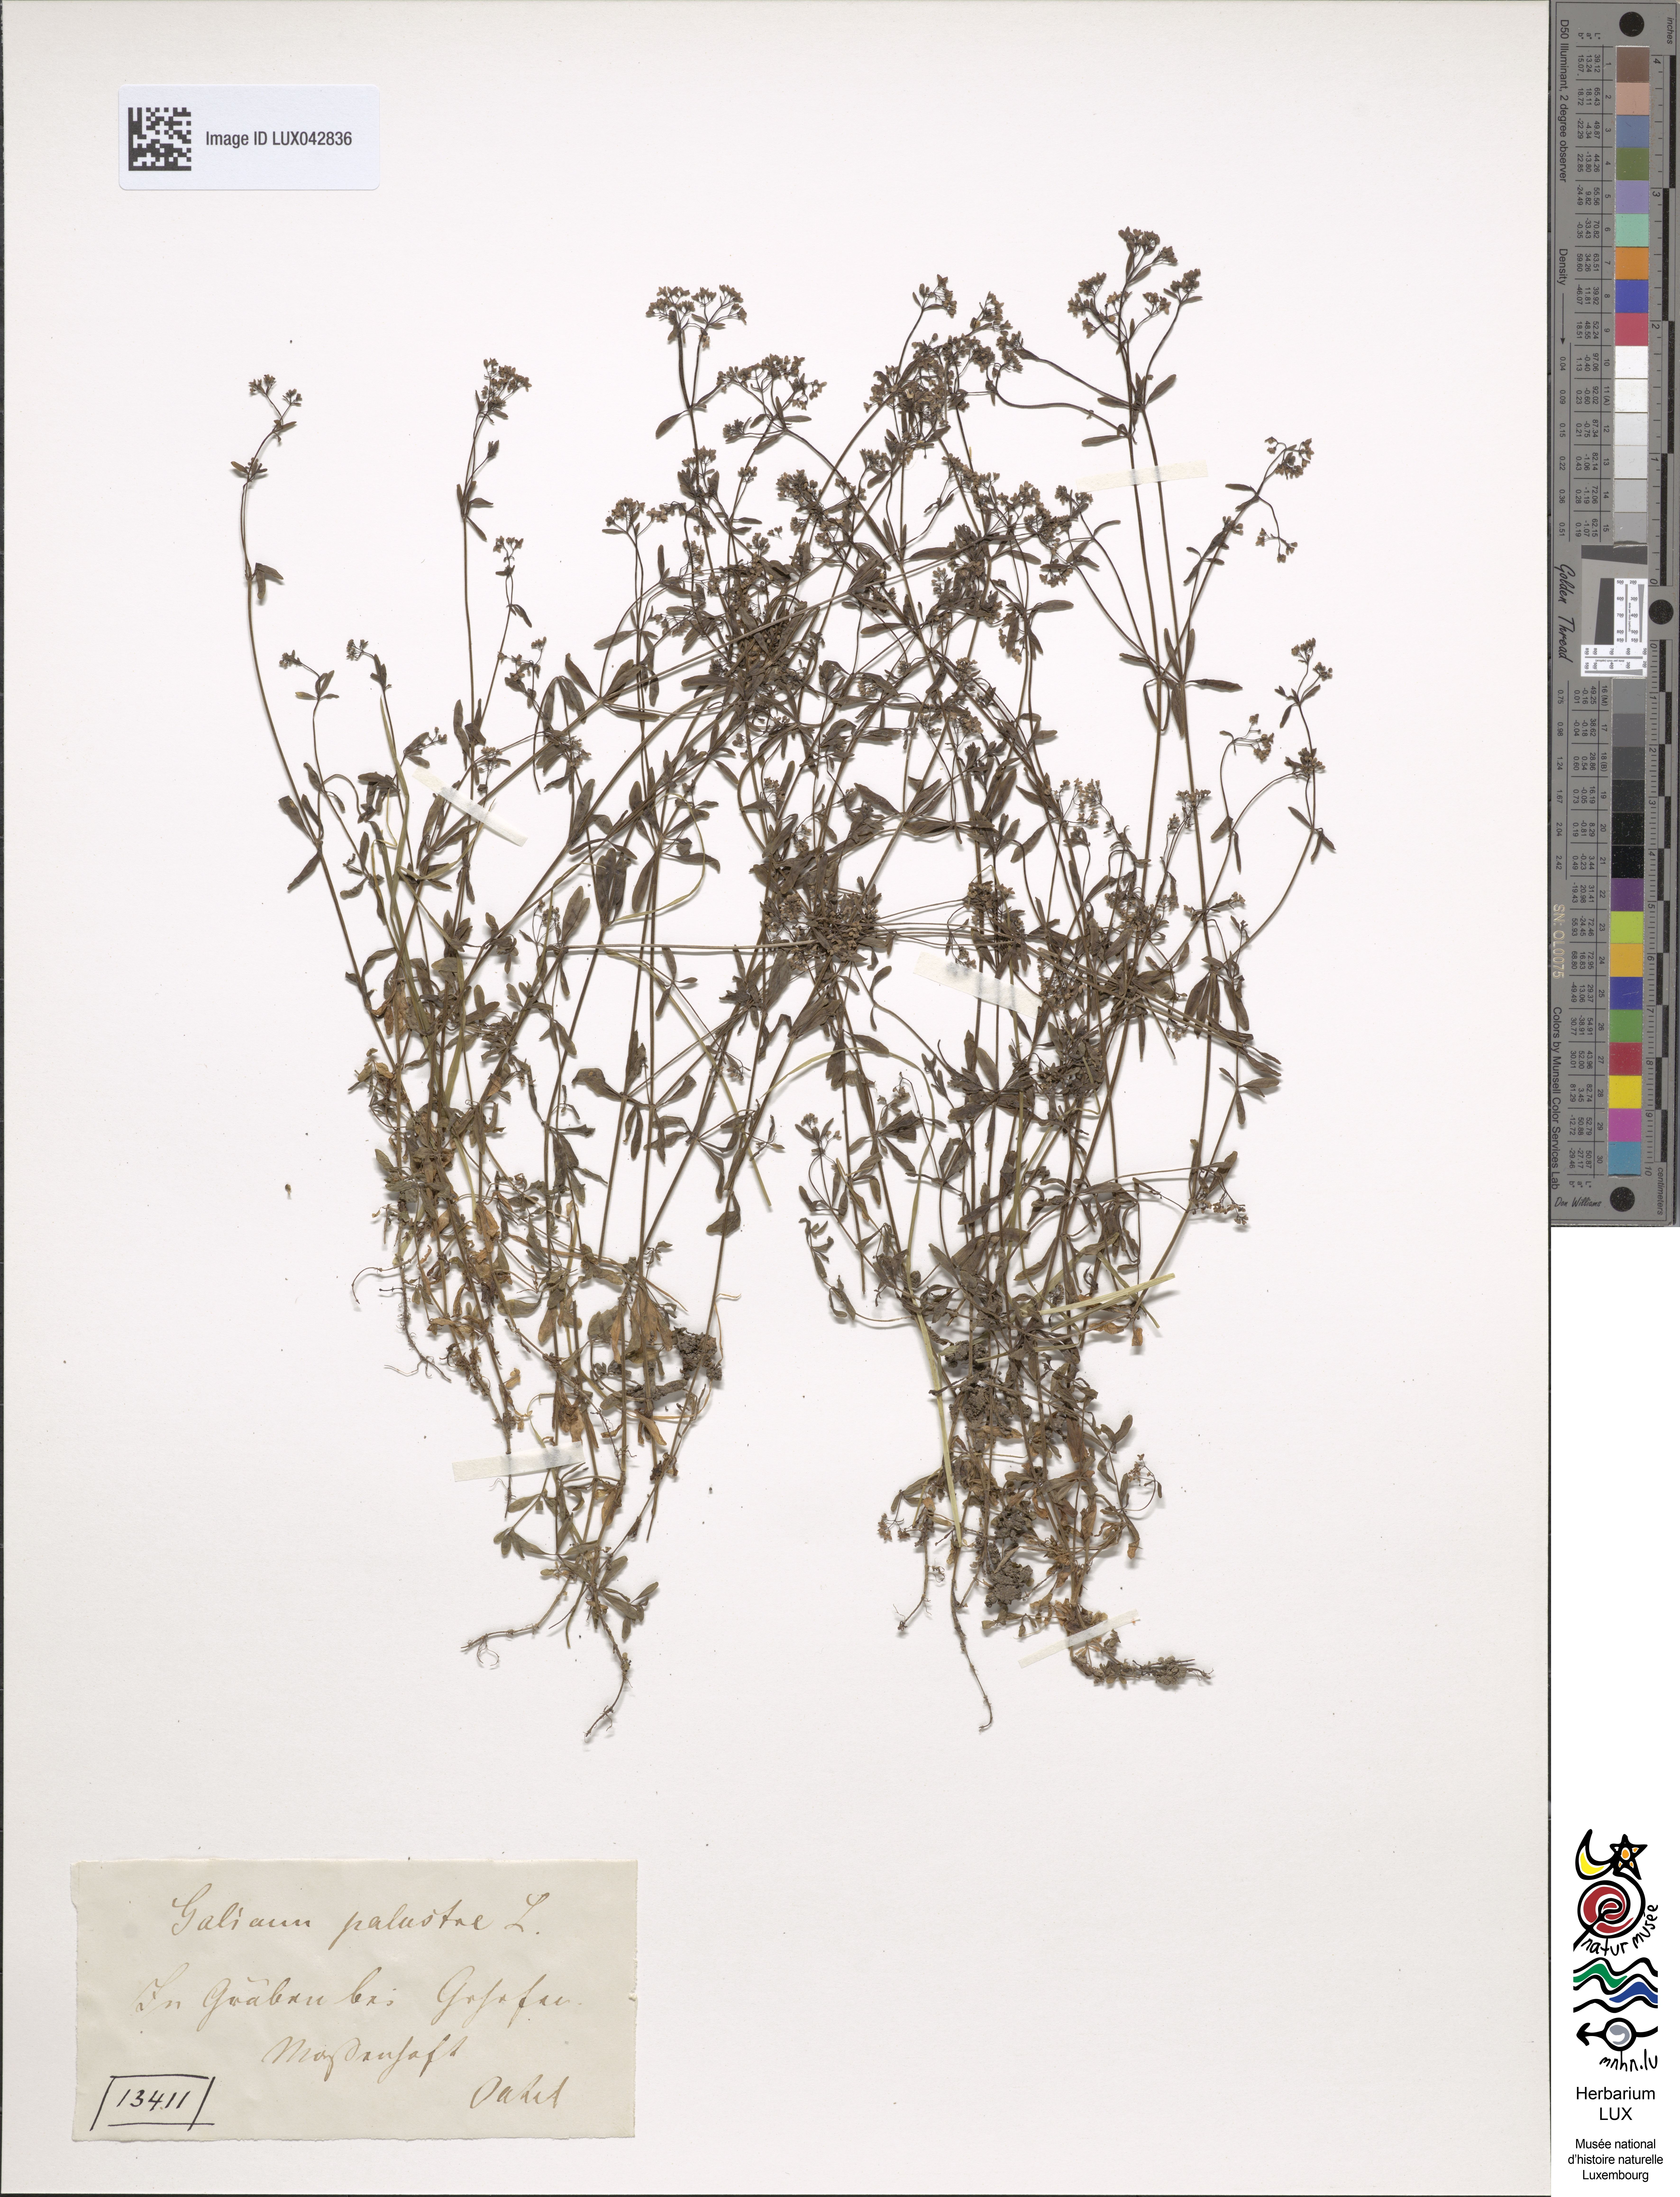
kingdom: Plantae
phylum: Tracheophyta
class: Magnoliopsida
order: Gentianales
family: Rubiaceae
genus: Galium
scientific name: Galium palustre
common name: Common marsh-bedstraw
